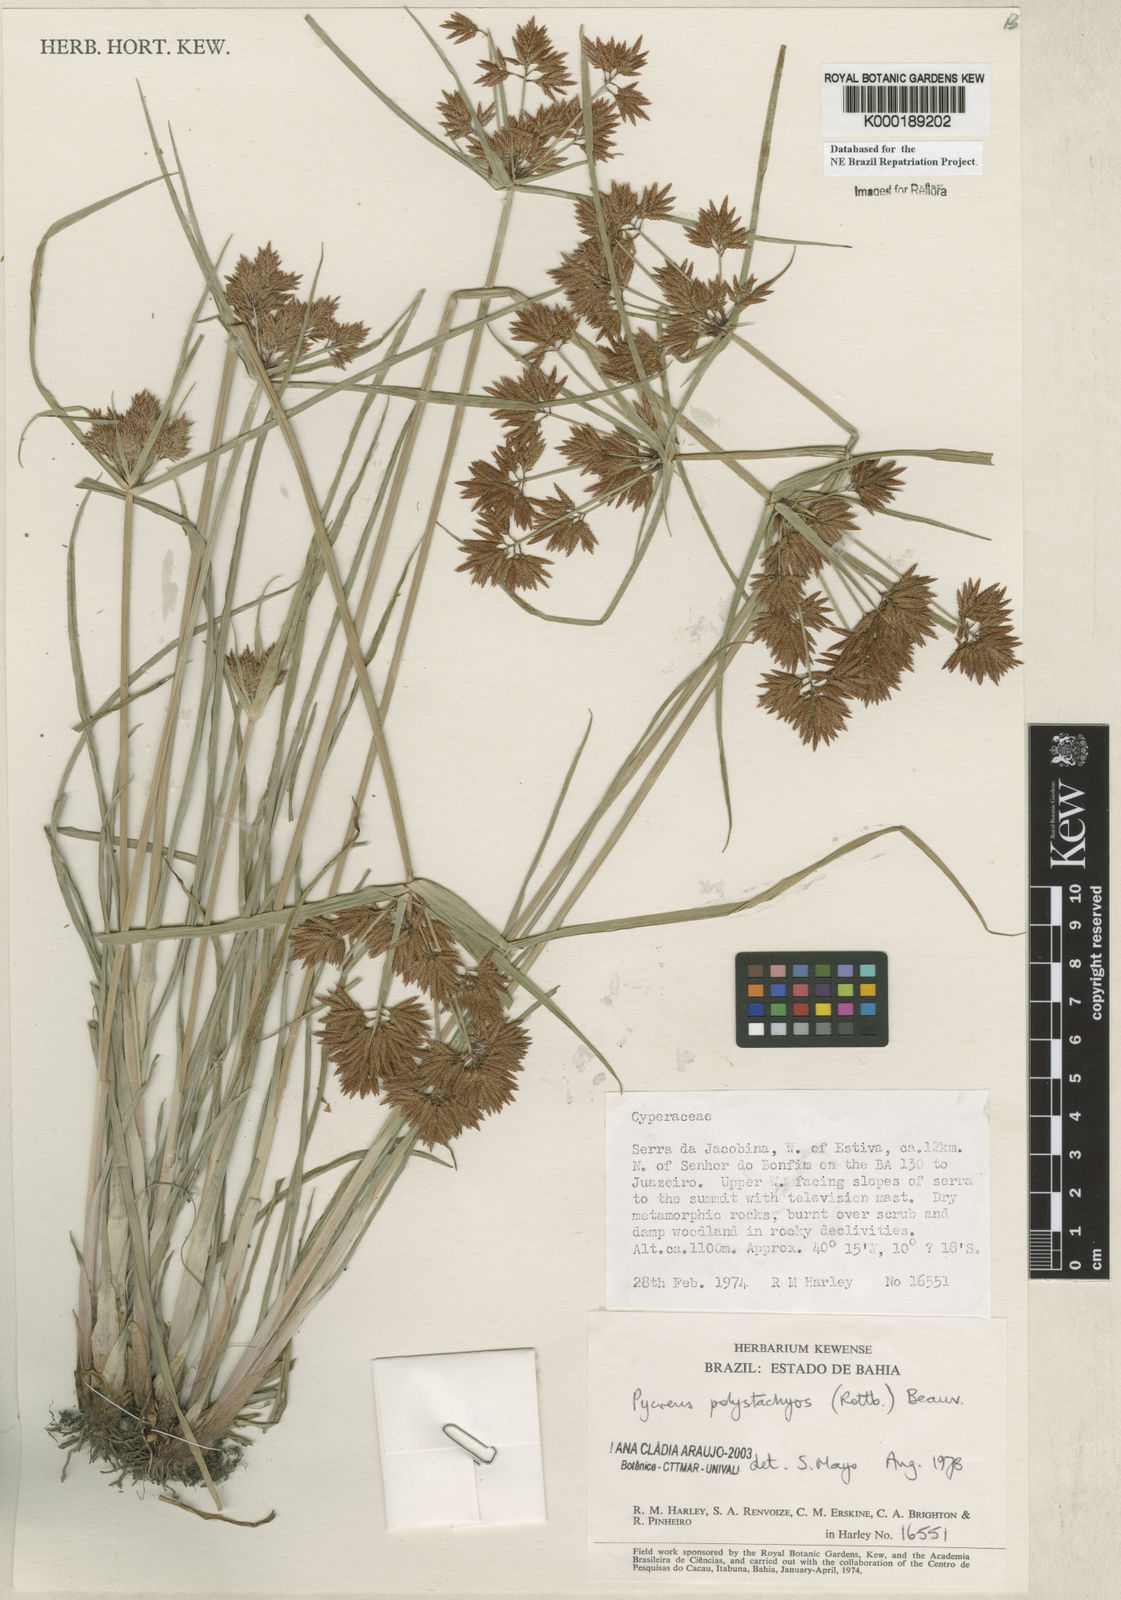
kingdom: Plantae
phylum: Tracheophyta
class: Liliopsida
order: Poales
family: Cyperaceae
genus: Cyperus
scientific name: Cyperus polystachyos
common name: Bunchy flat sedge
